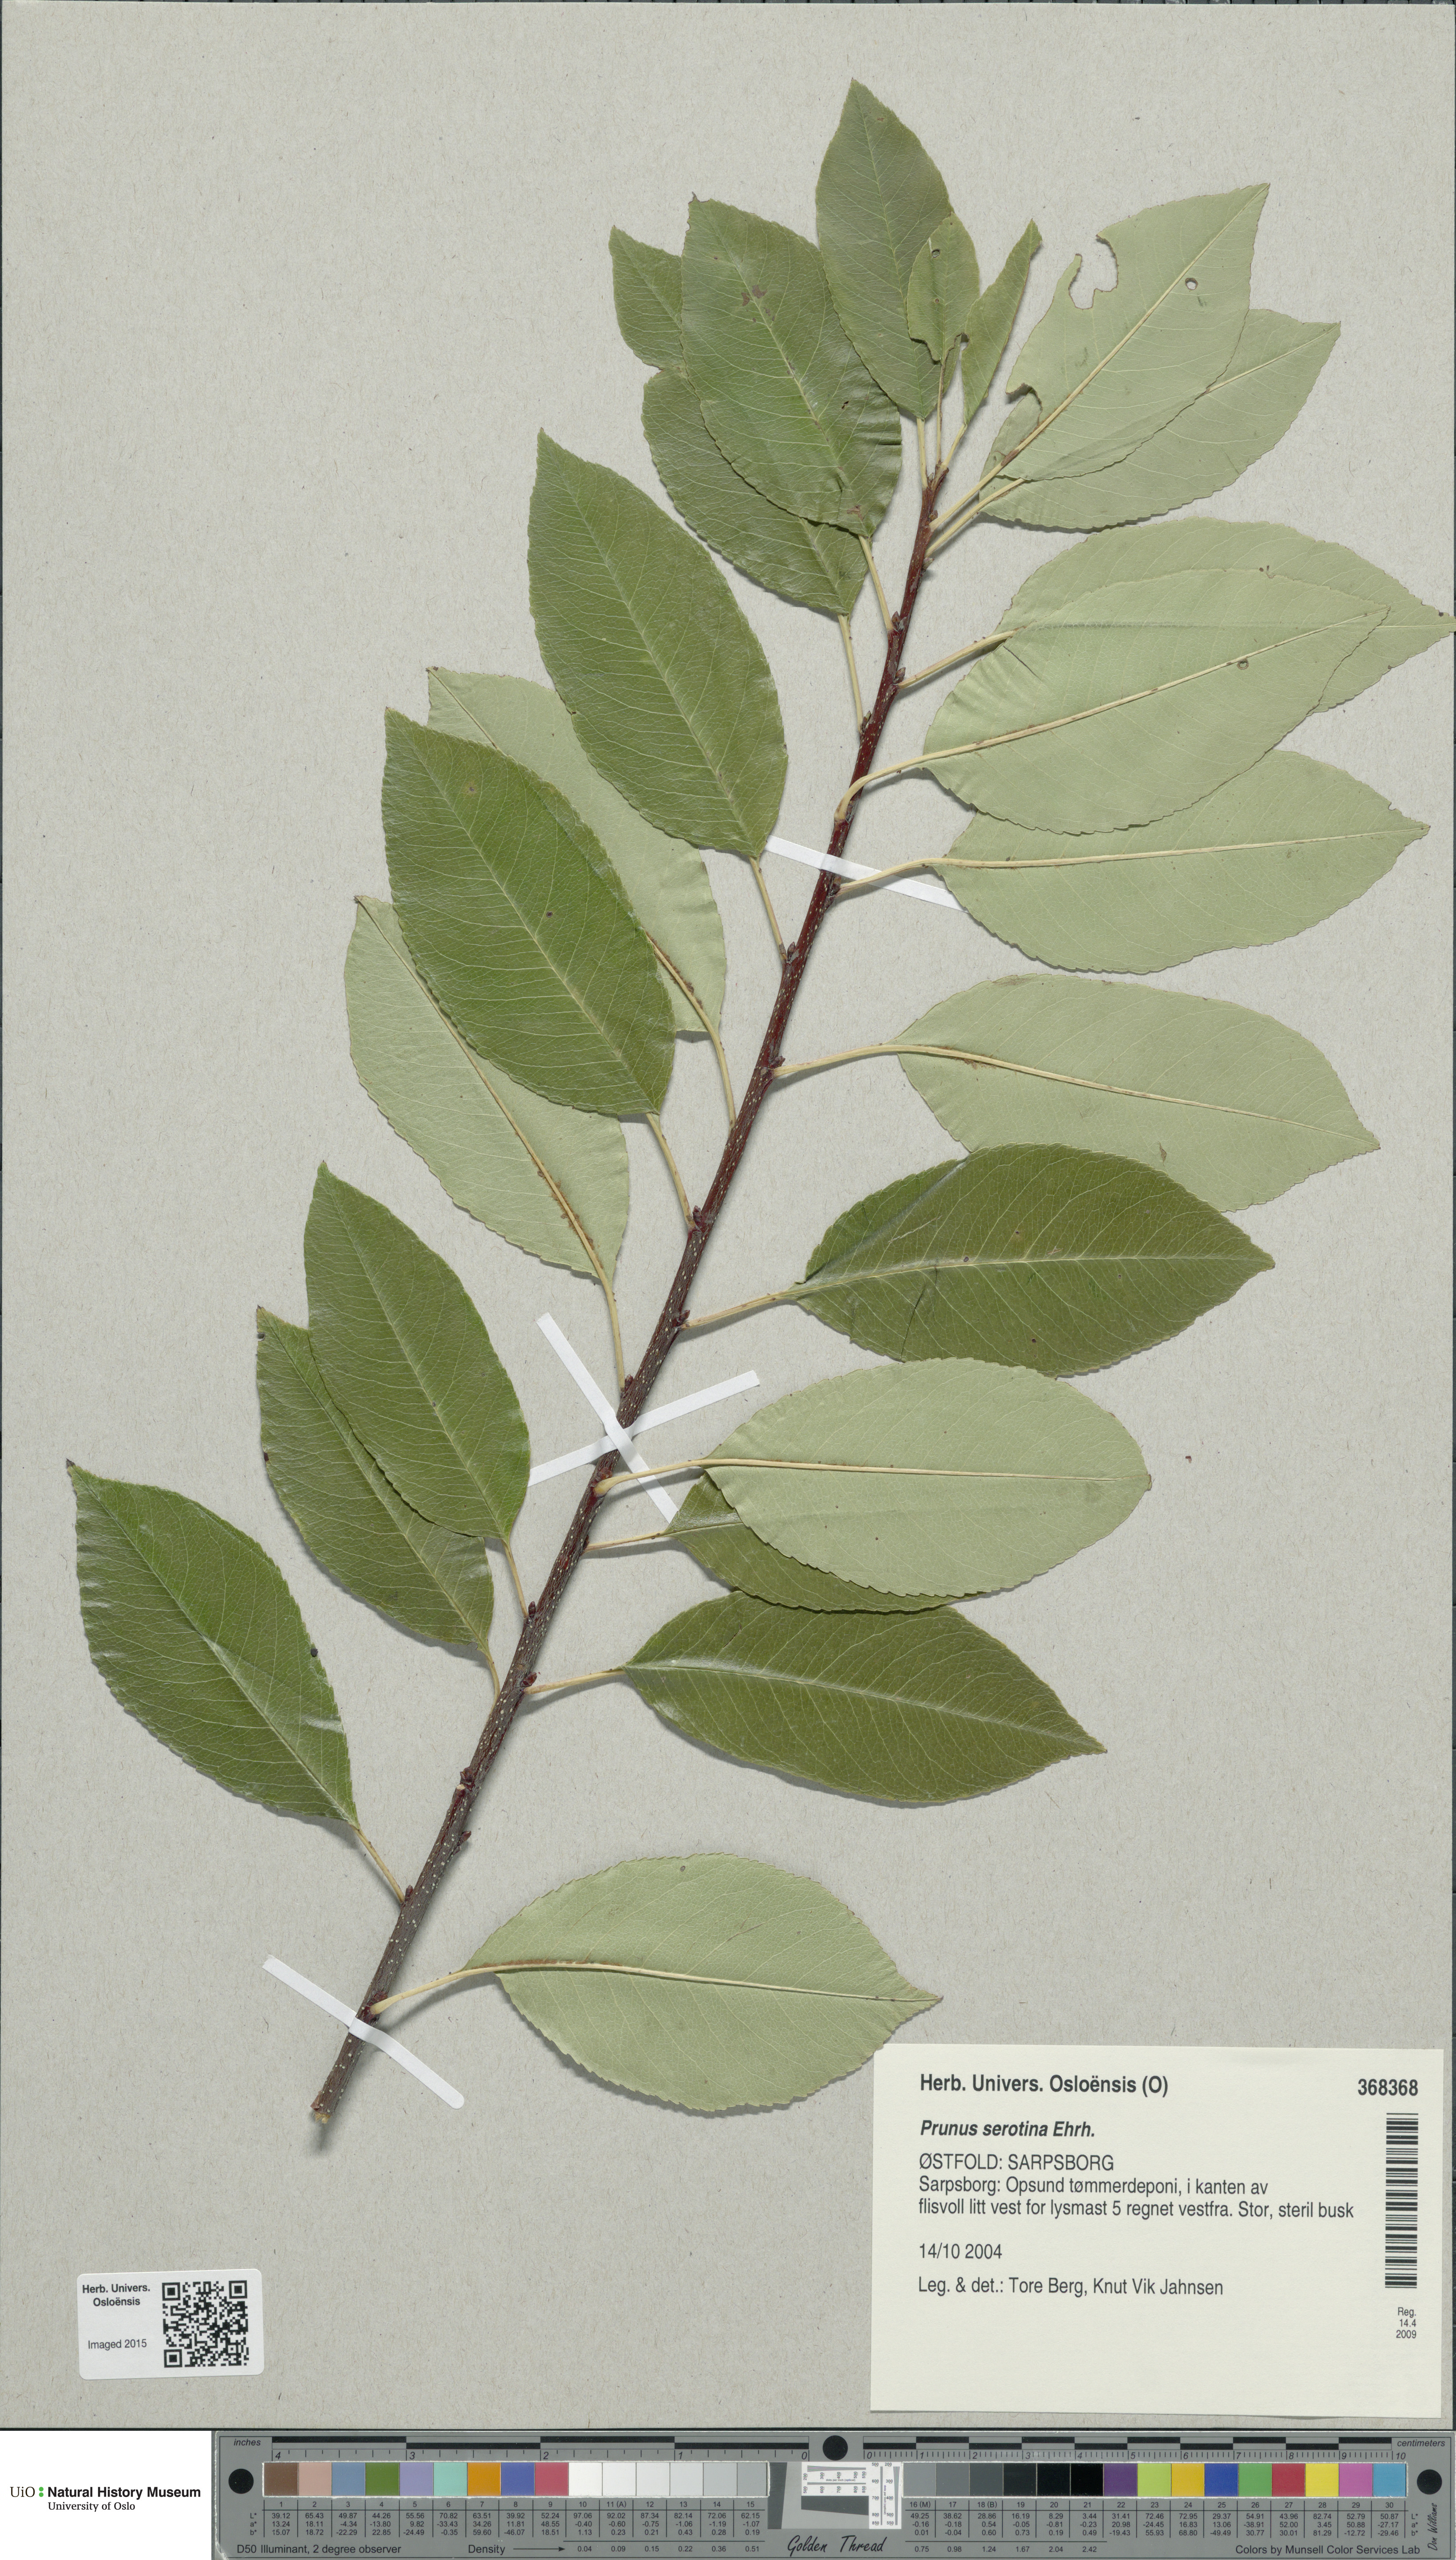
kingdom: Plantae
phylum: Tracheophyta
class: Magnoliopsida
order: Rosales
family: Rosaceae
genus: Prunus
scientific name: Prunus serotina
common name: Black cherry
